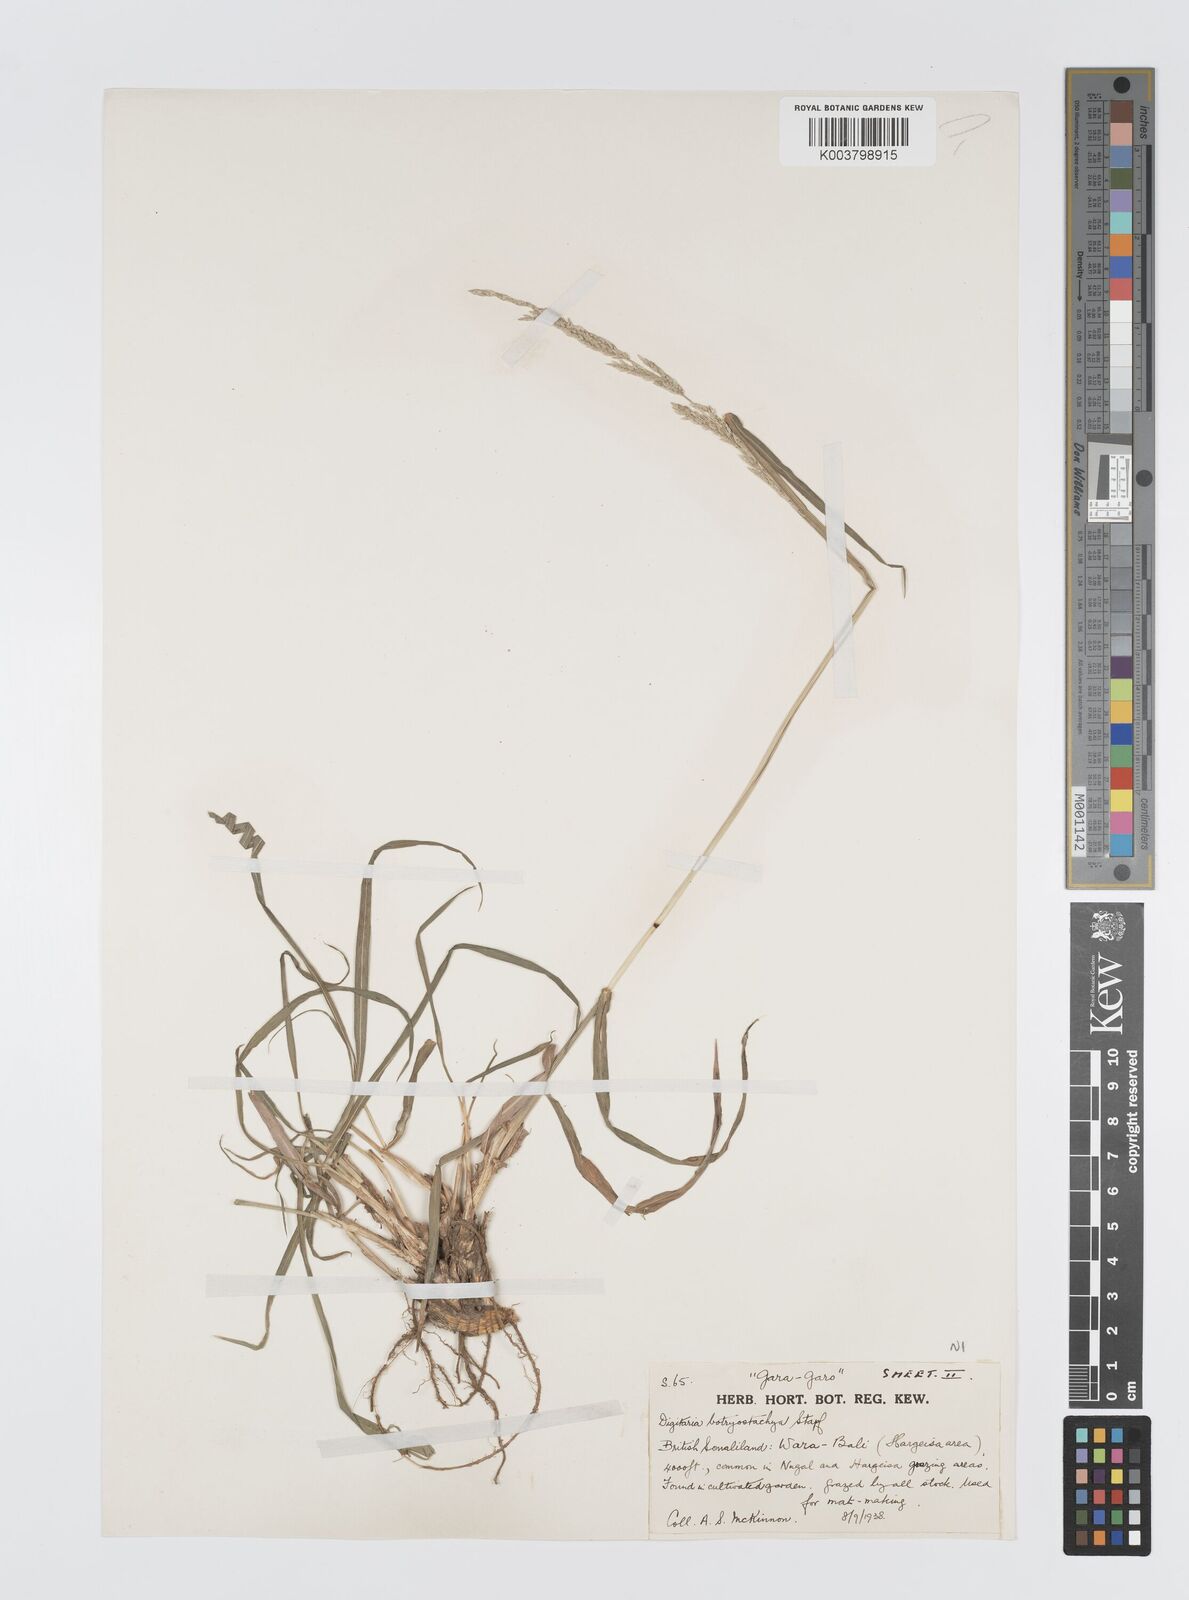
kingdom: Plantae
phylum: Tracheophyta
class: Liliopsida
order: Poales
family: Poaceae
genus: Digitaria
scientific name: Digitaria rivae
